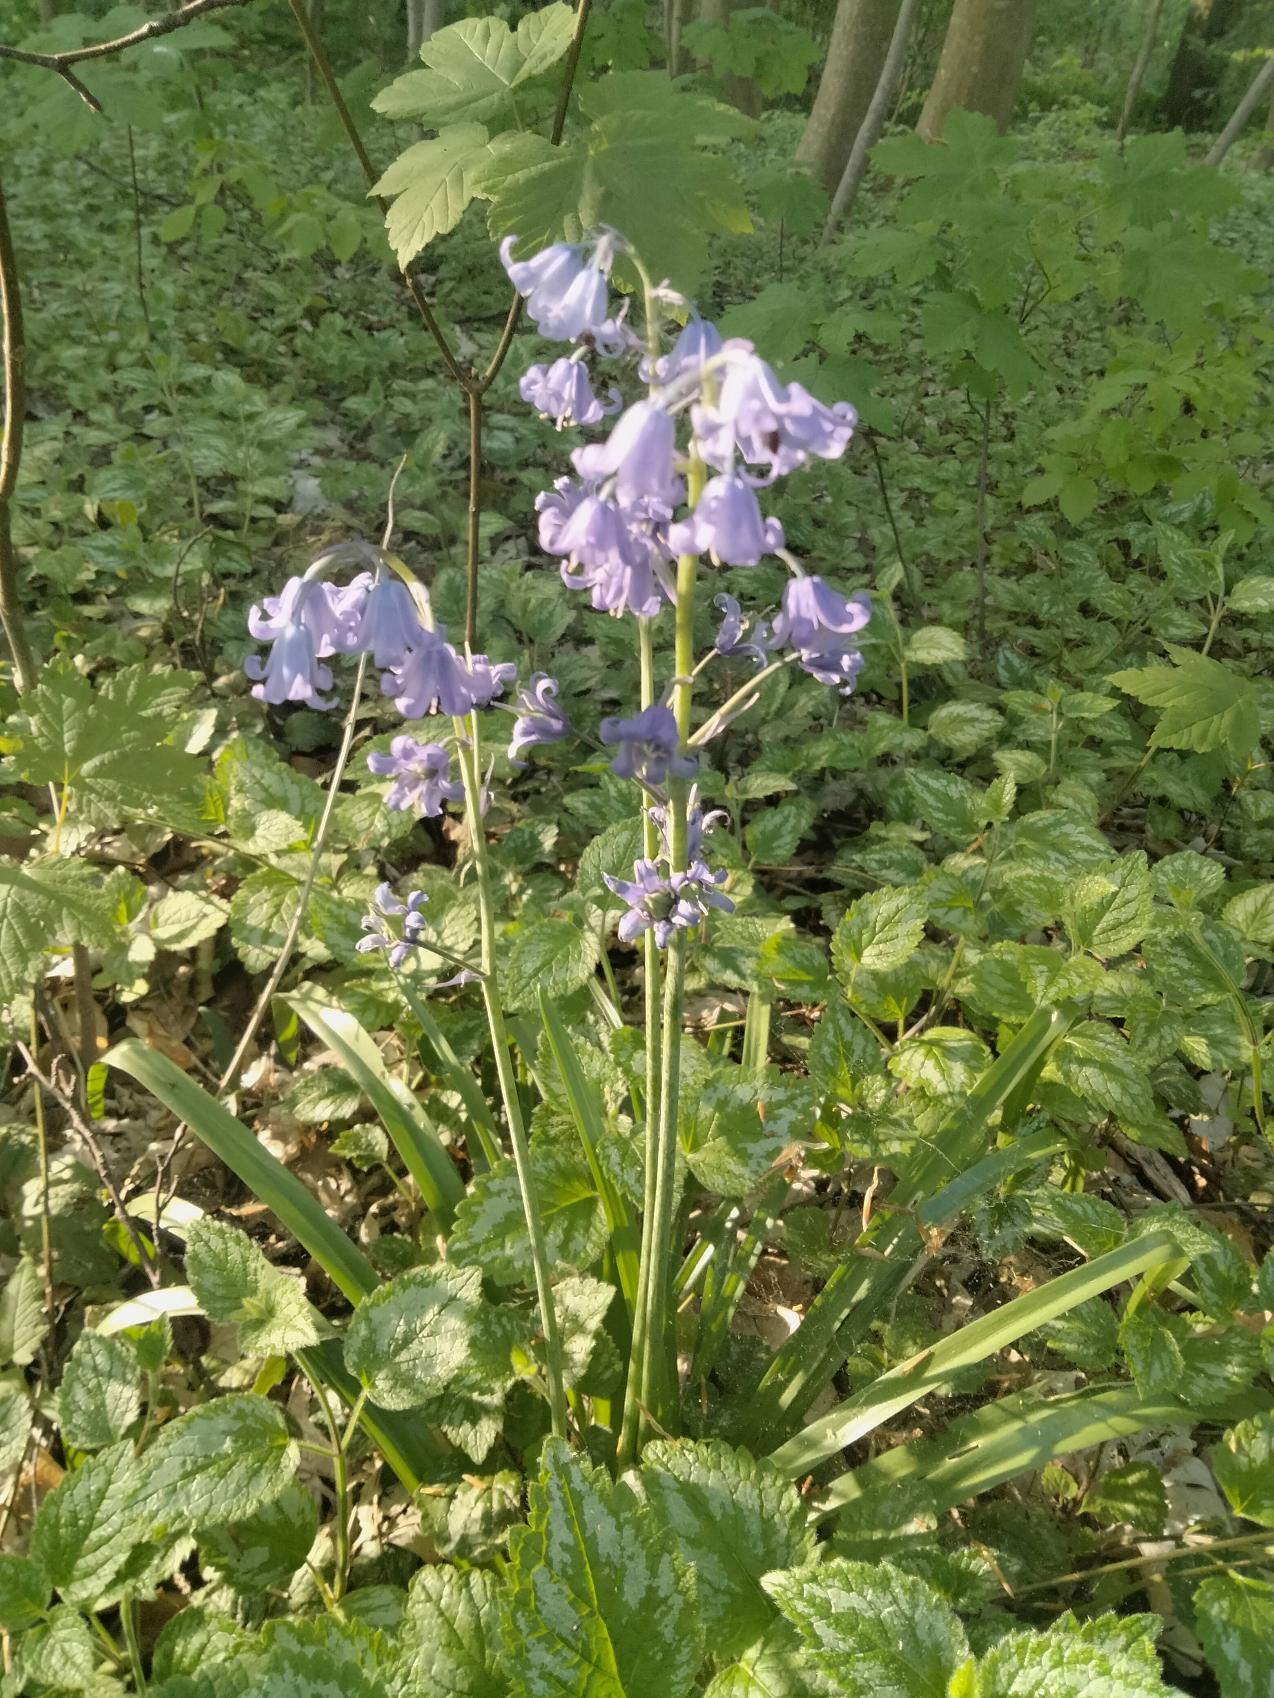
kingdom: Plantae
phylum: Tracheophyta
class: Liliopsida
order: Asparagales
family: Asparagaceae
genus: Hyacinthoides
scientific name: Hyacinthoides massartiana
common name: Hybrid-klokkeskilla
